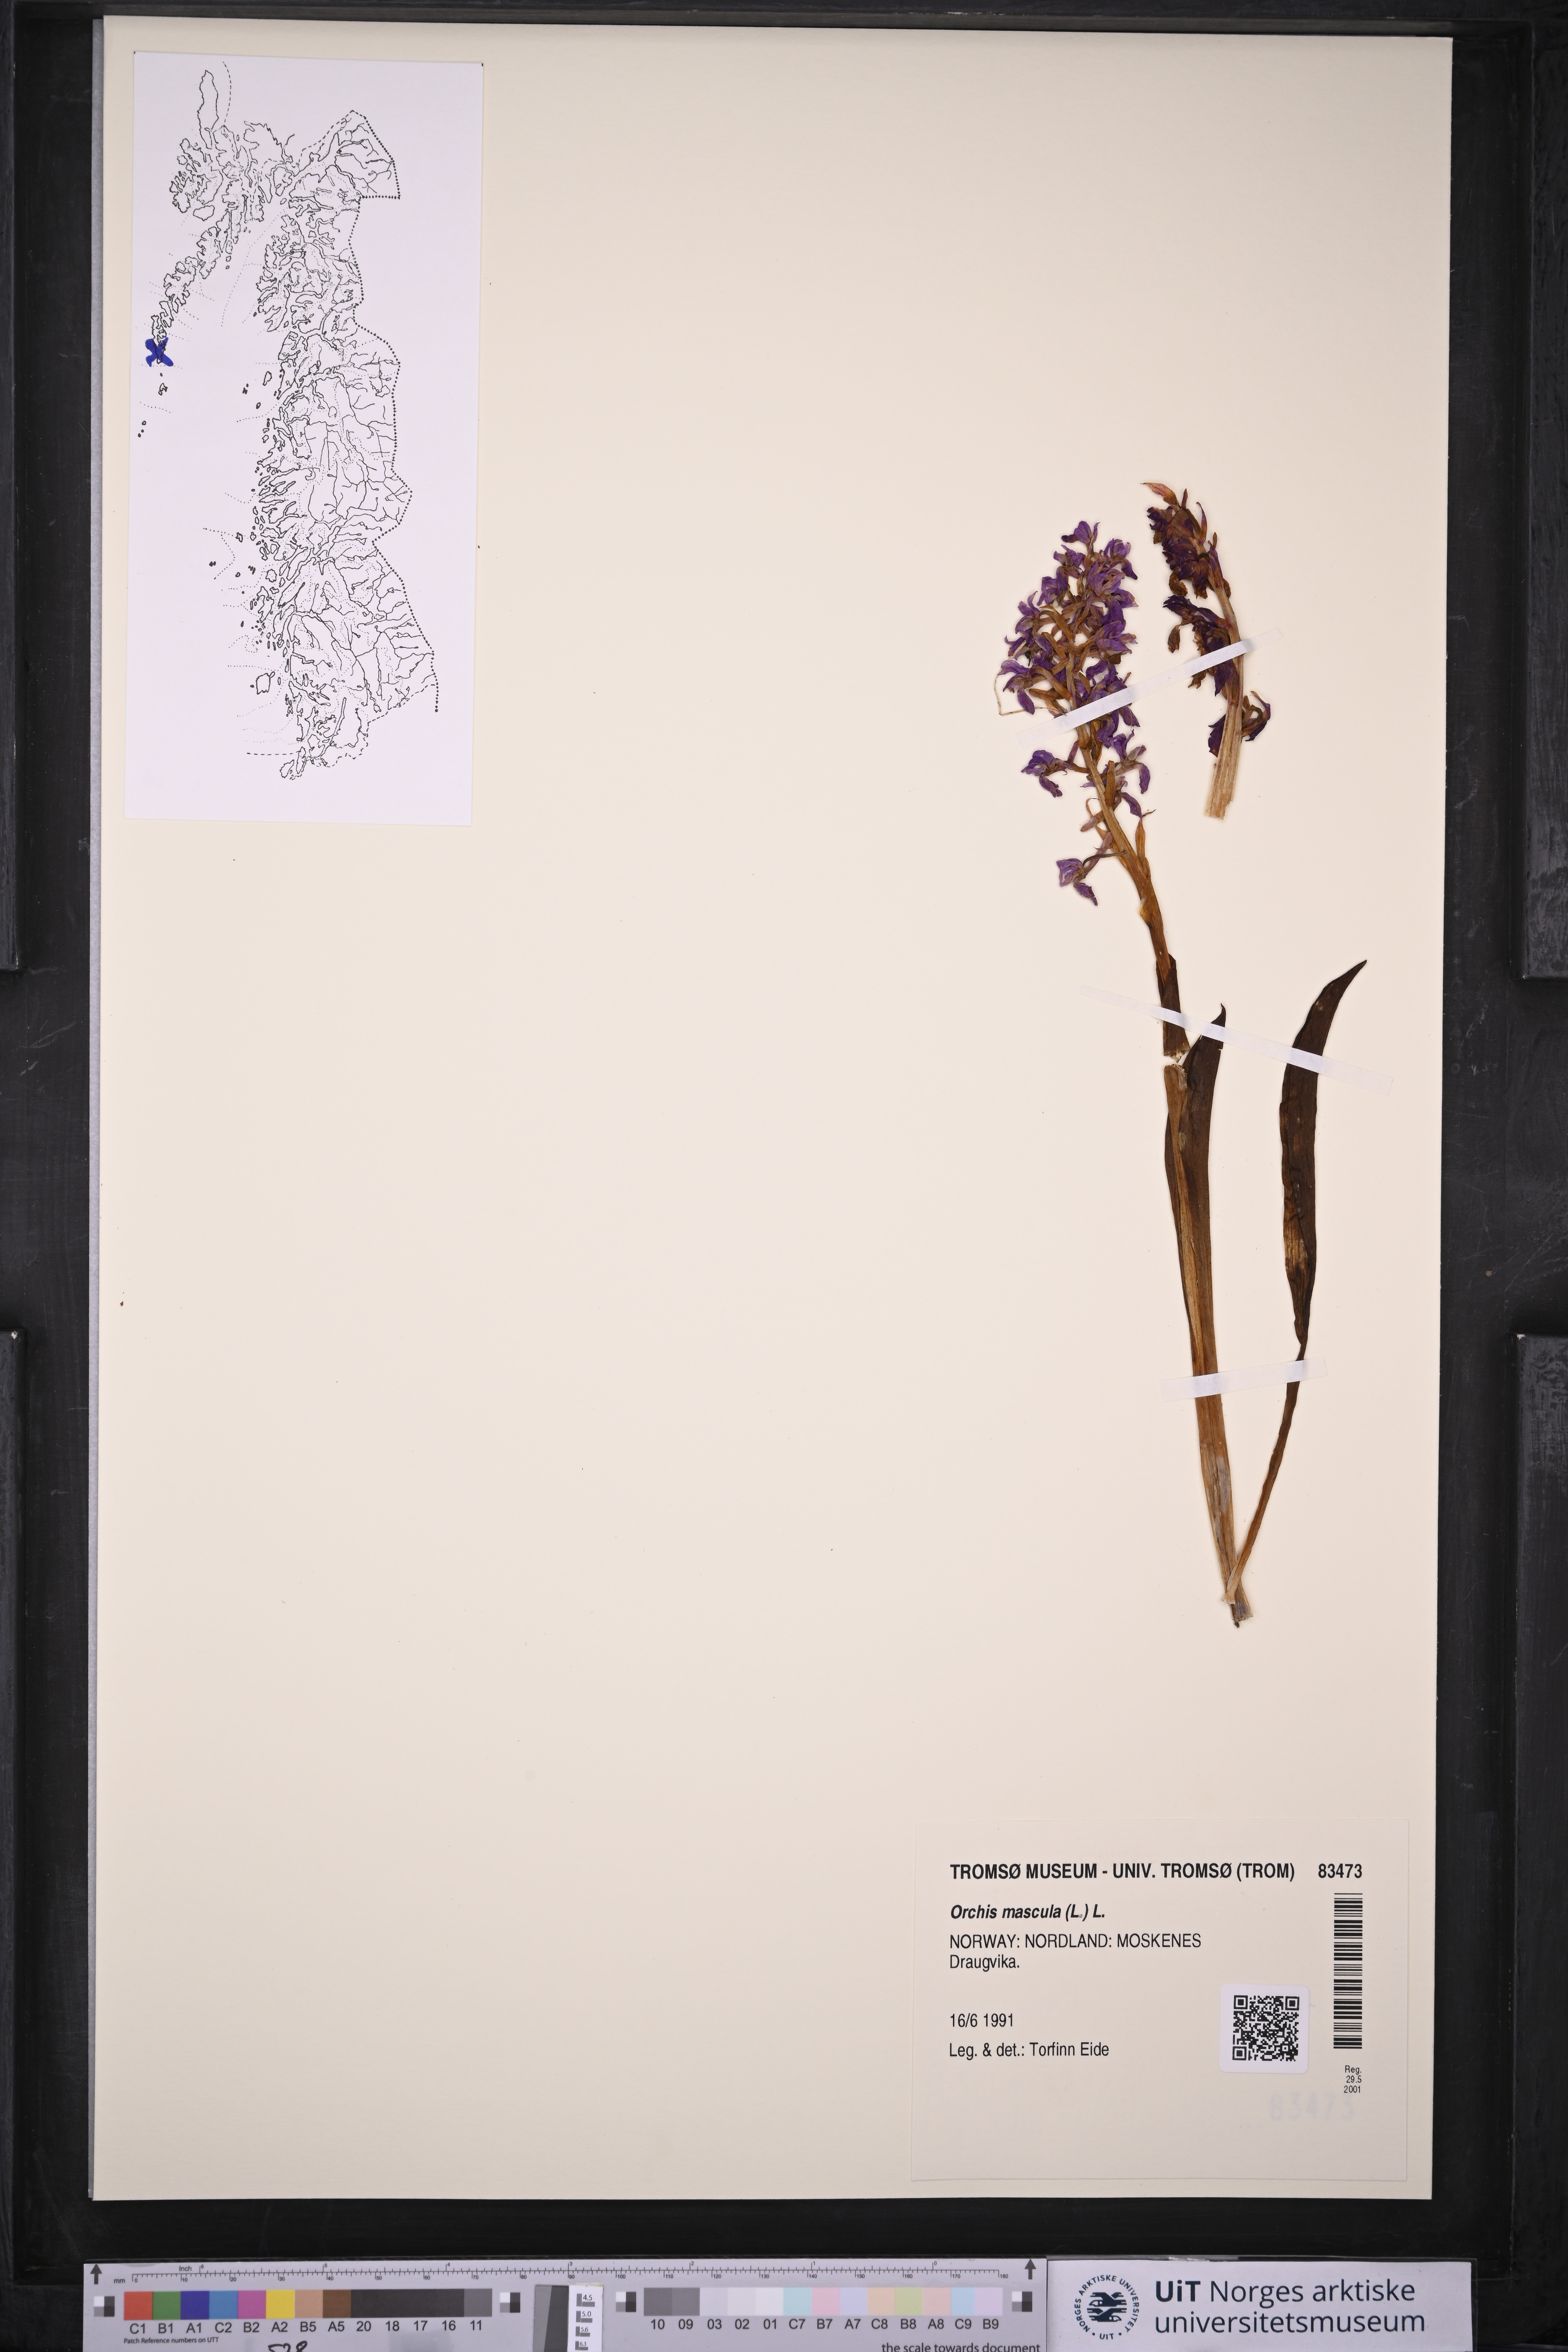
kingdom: Plantae
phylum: Tracheophyta
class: Liliopsida
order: Asparagales
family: Orchidaceae
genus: Orchis
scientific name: Orchis mascula
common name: Early-purple orchid
